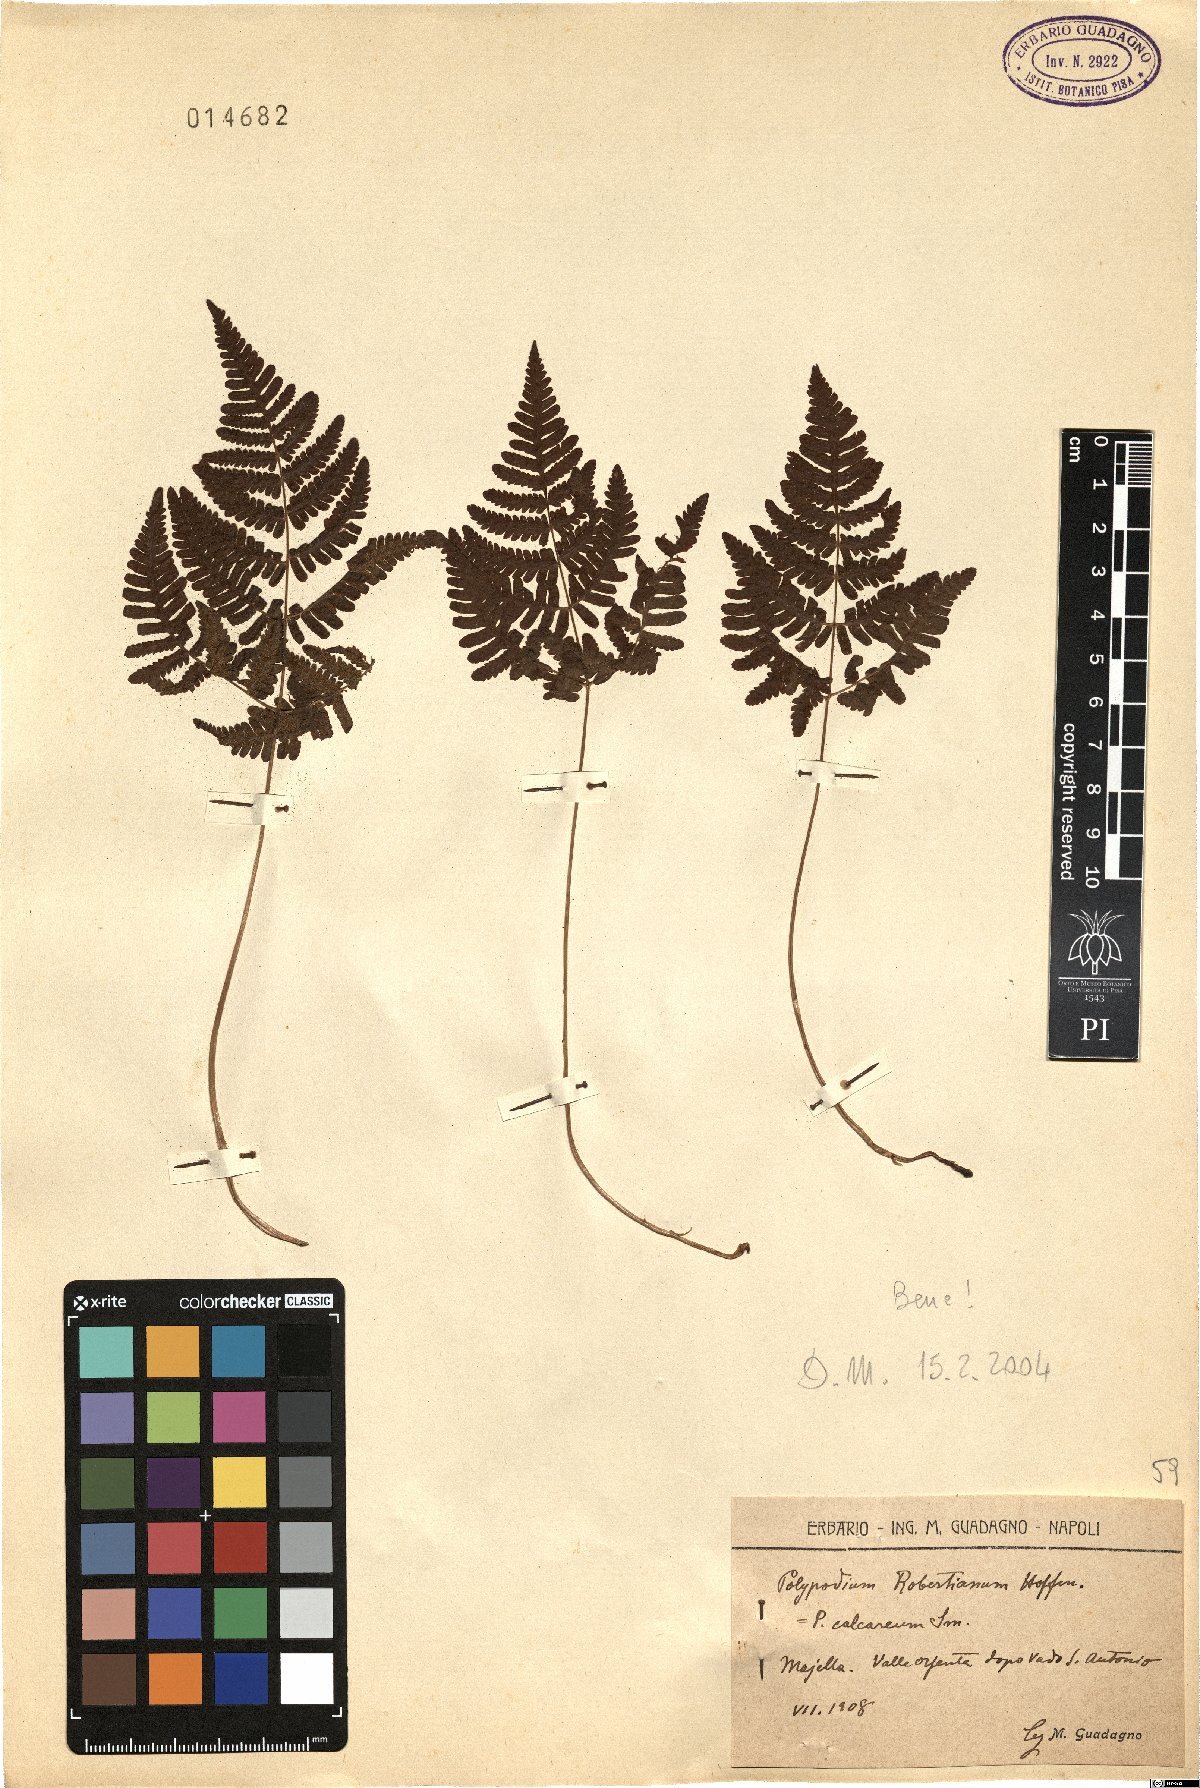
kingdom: Plantae
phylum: Tracheophyta
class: Polypodiopsida
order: Polypodiales
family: Cystopteridaceae
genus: Gymnocarpium
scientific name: Gymnocarpium robertianum
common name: Limestone fern
